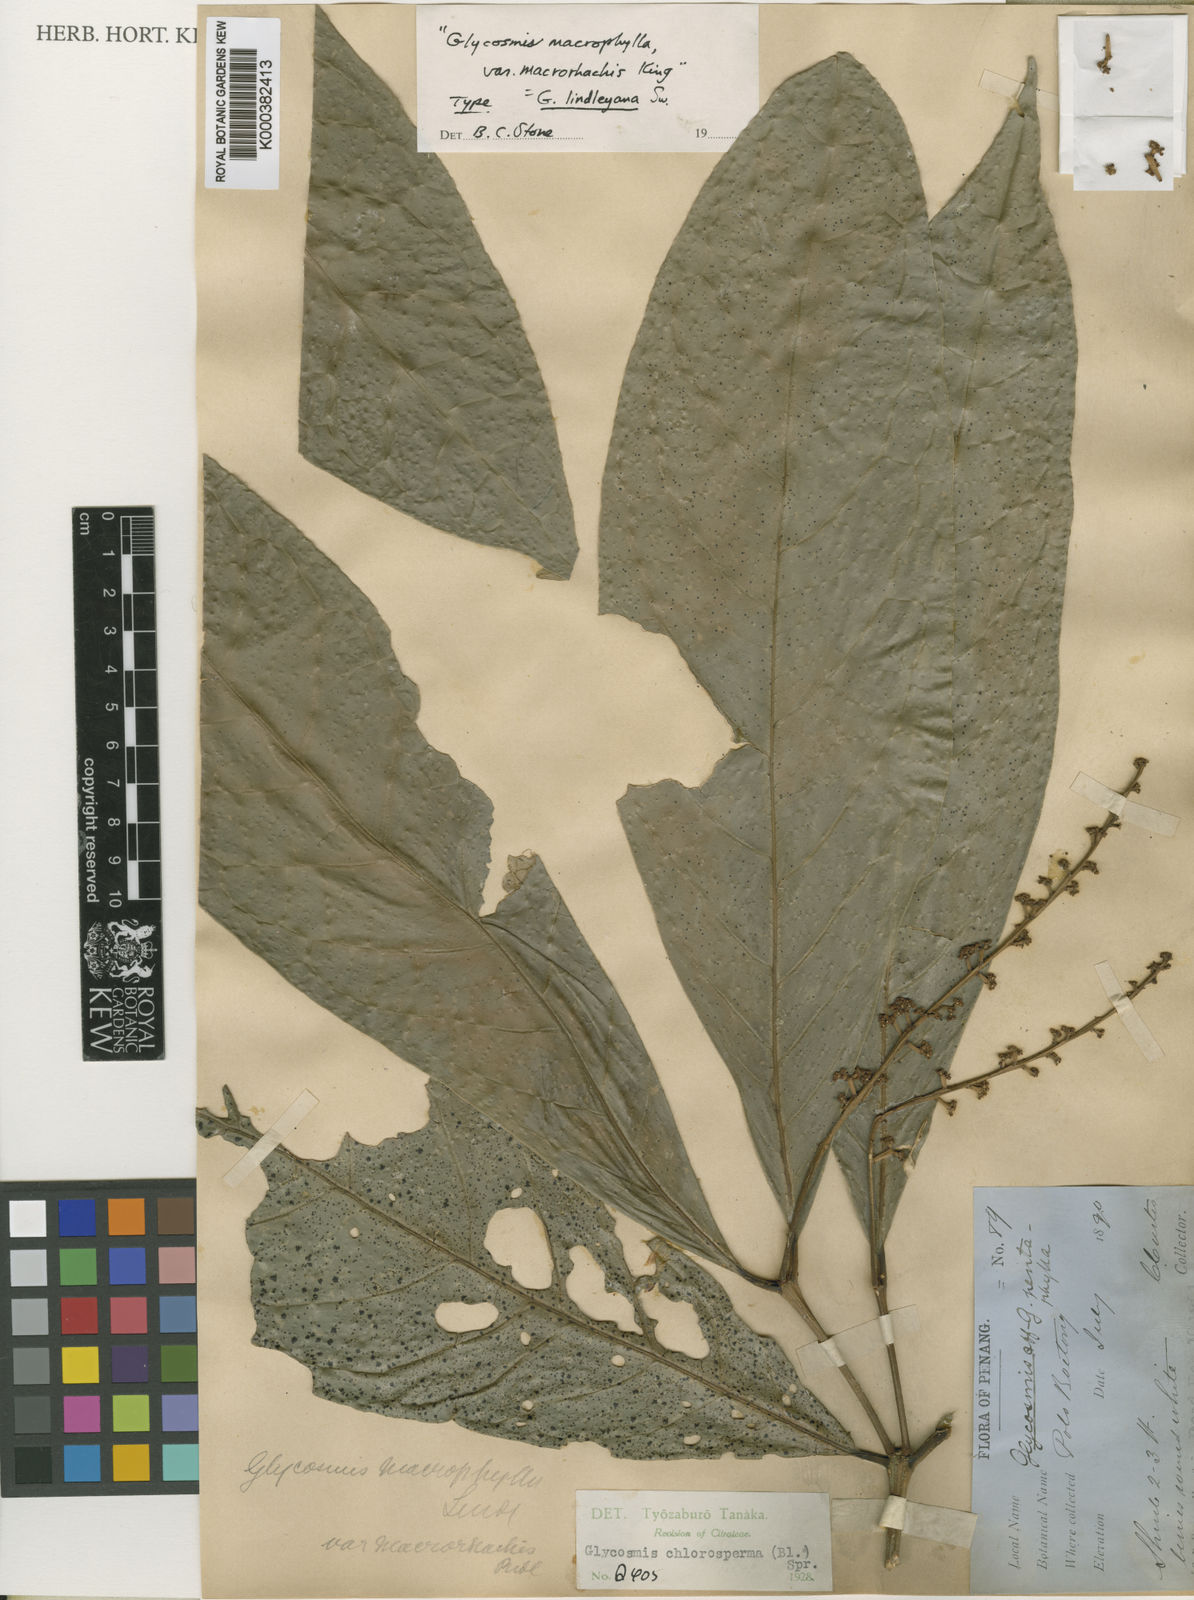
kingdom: Plantae
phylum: Tracheophyta
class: Magnoliopsida
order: Sapindales
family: Rutaceae
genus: Glycosmis
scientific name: Glycosmis
